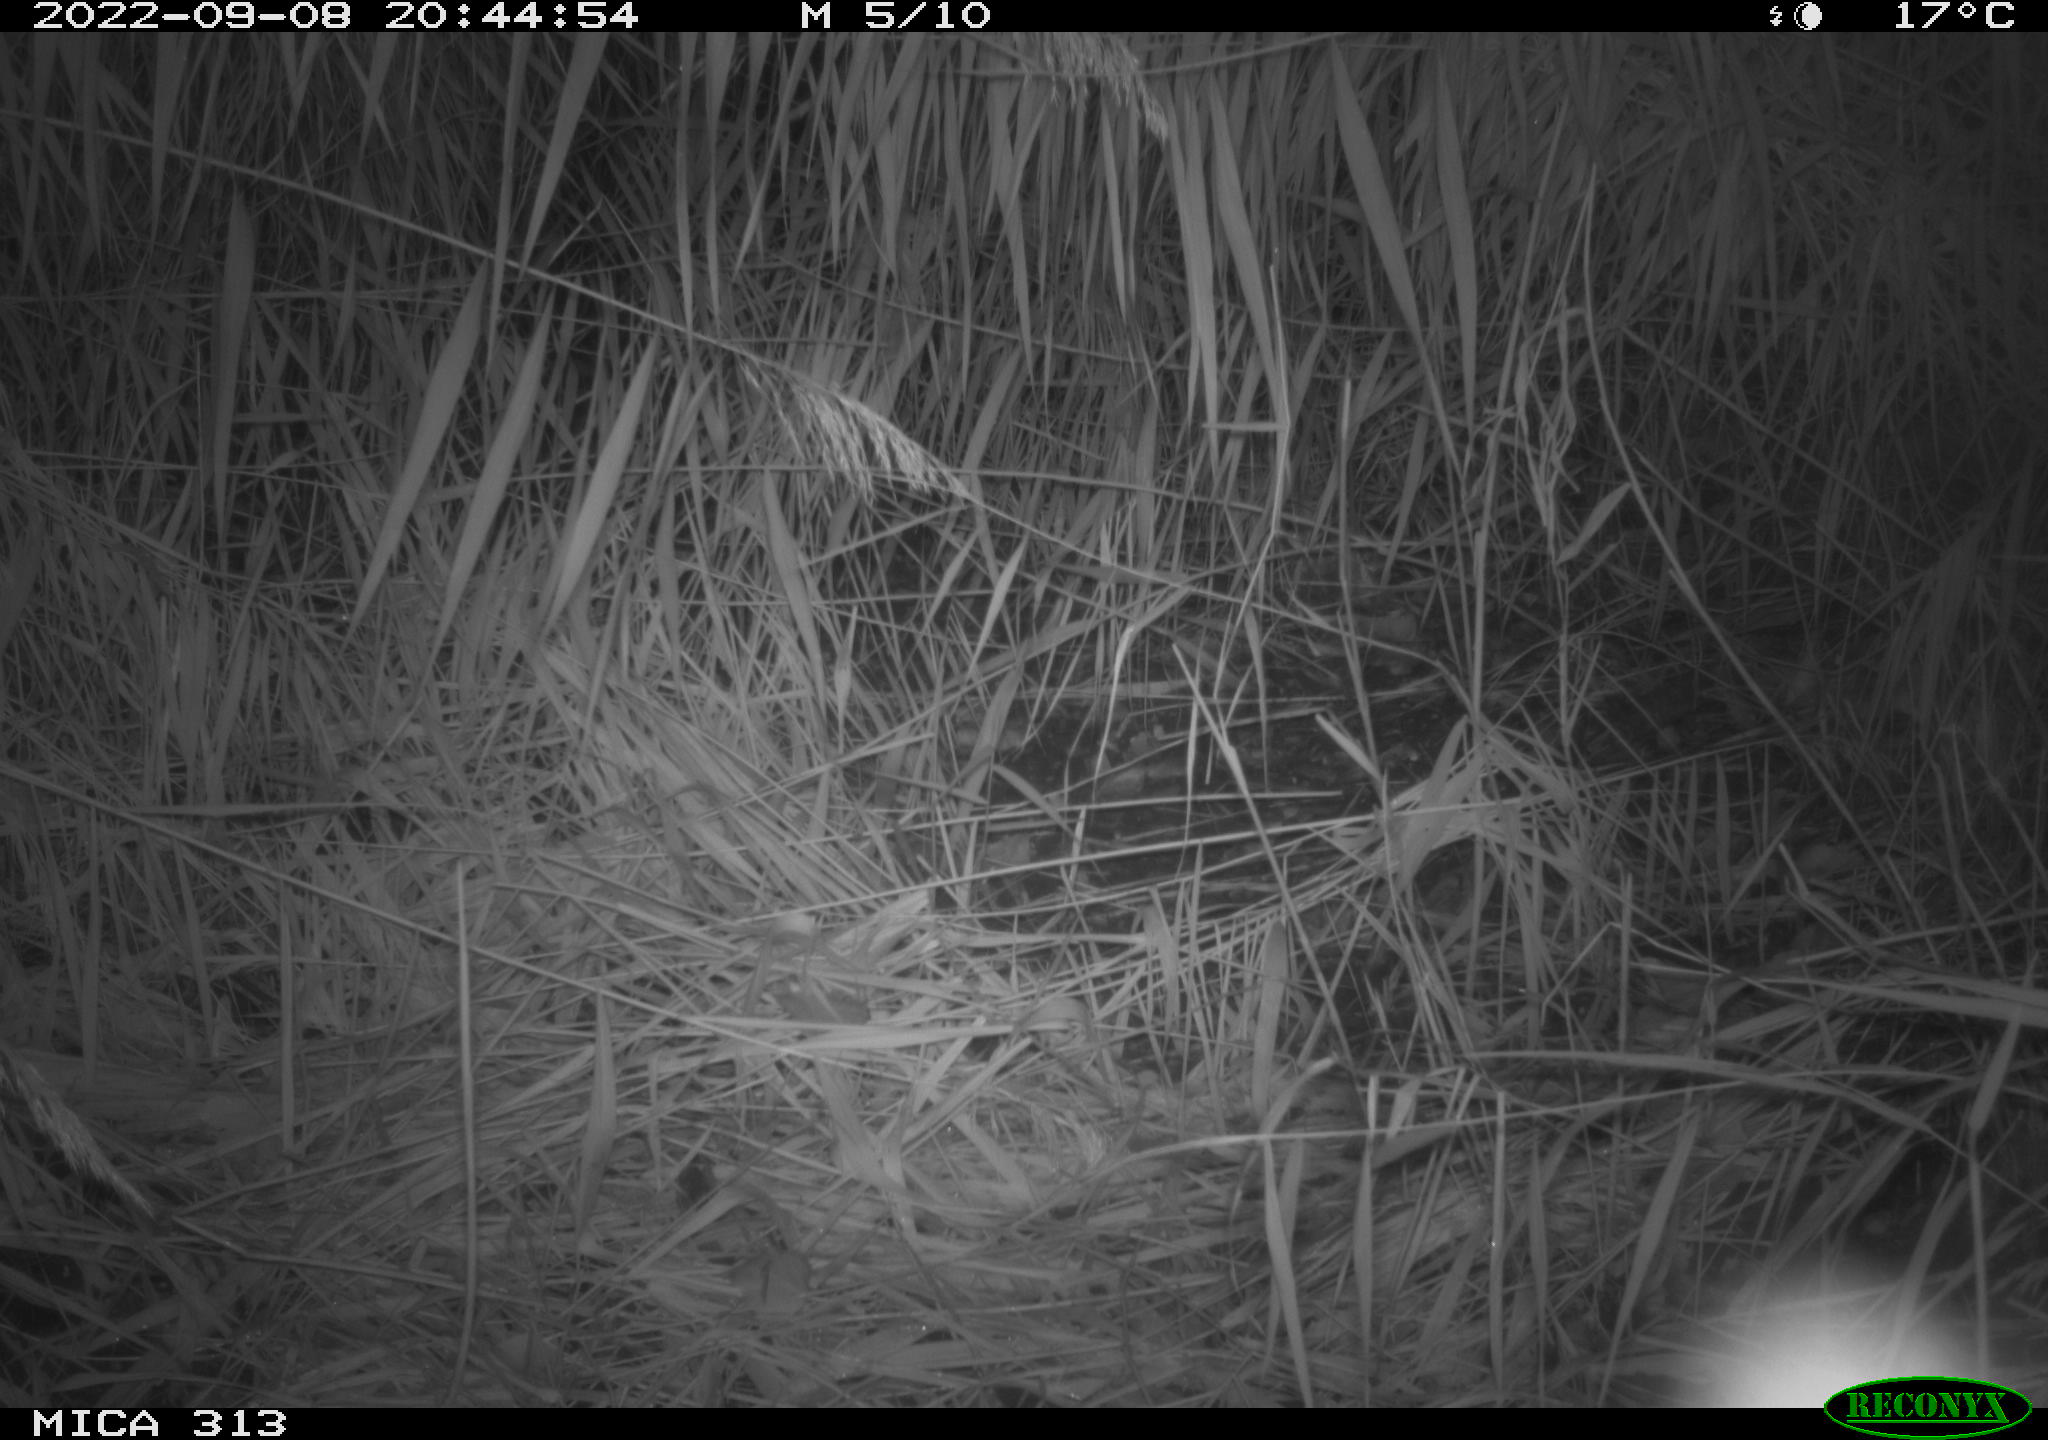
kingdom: Animalia
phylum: Chordata
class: Mammalia
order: Rodentia
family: Muridae
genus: Apodemus
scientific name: Apodemus sylvaticus
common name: Wood mouse
